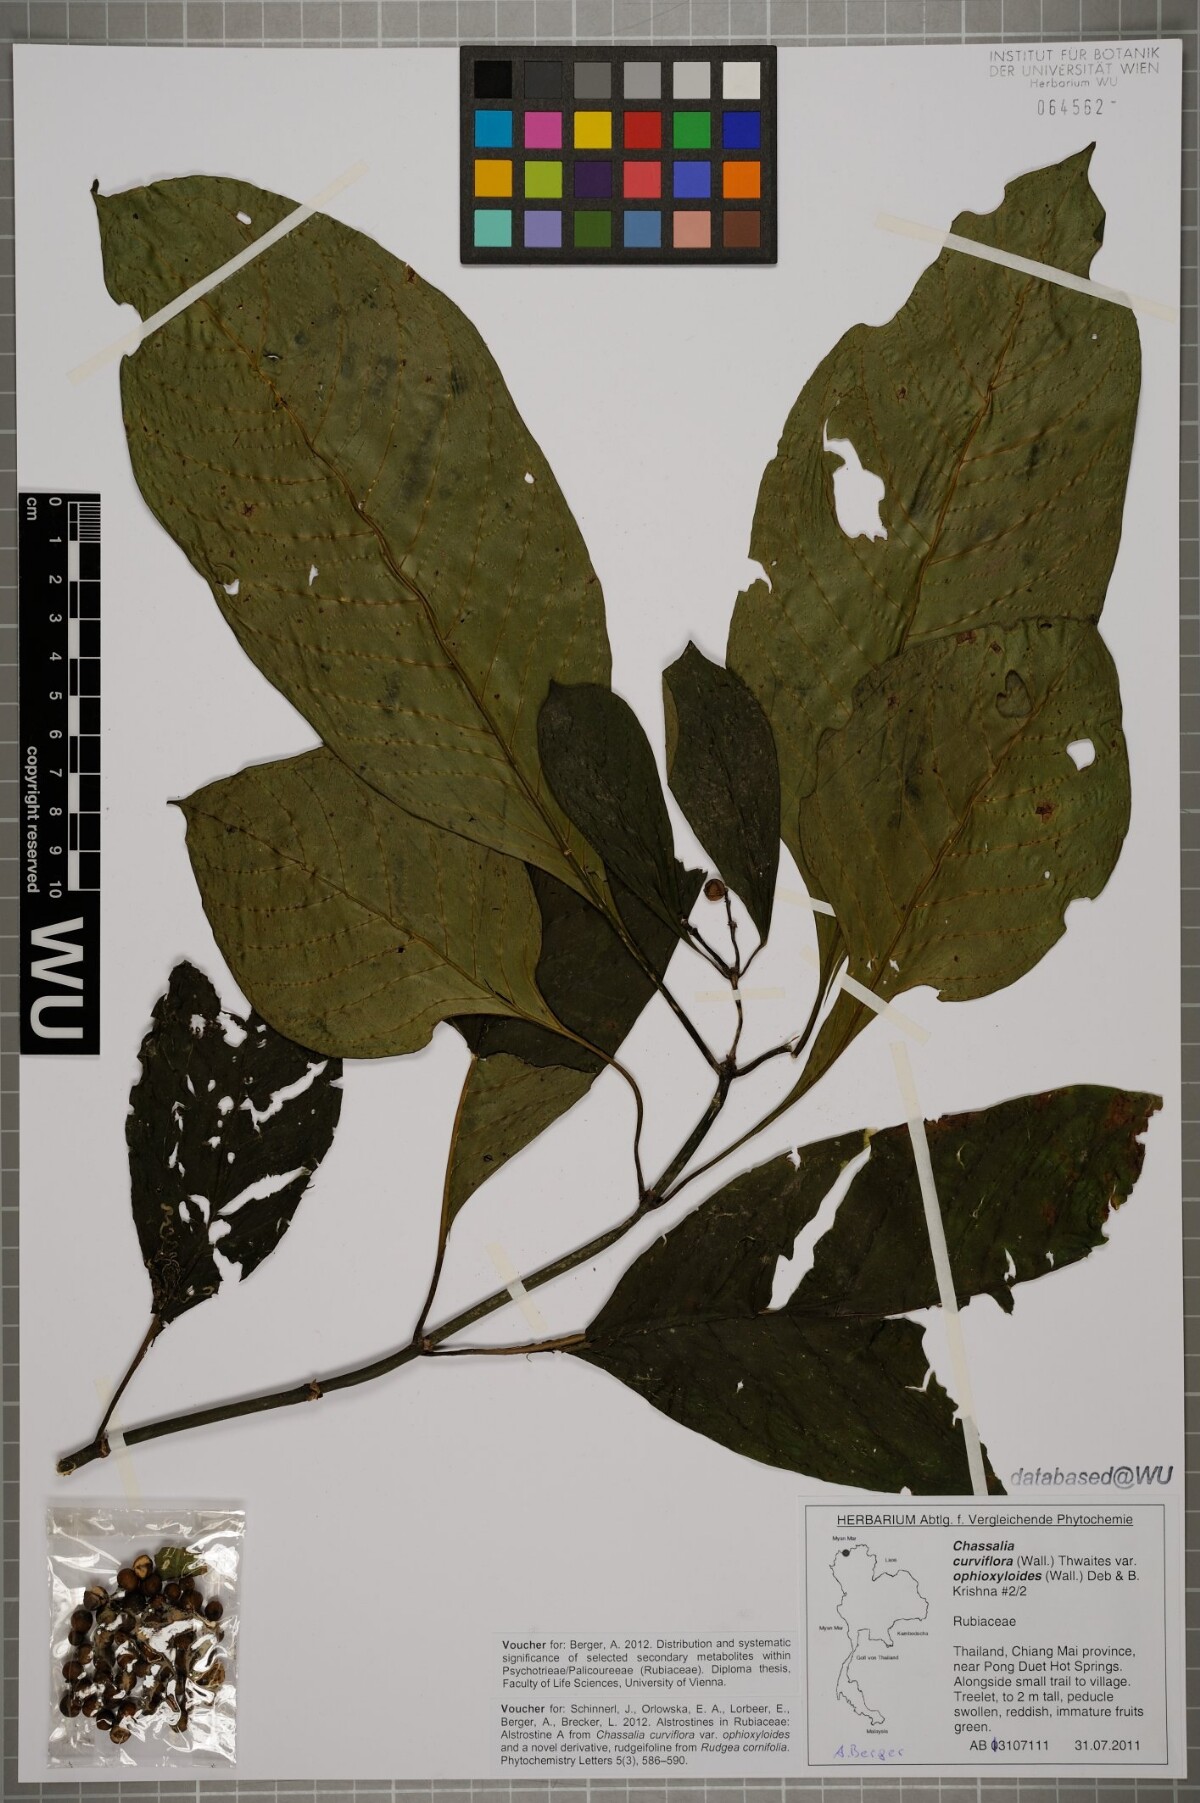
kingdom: Plantae
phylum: Tracheophyta
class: Magnoliopsida
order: Gentianales
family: Rubiaceae
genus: Chassalia
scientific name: Chassalia curviflora
